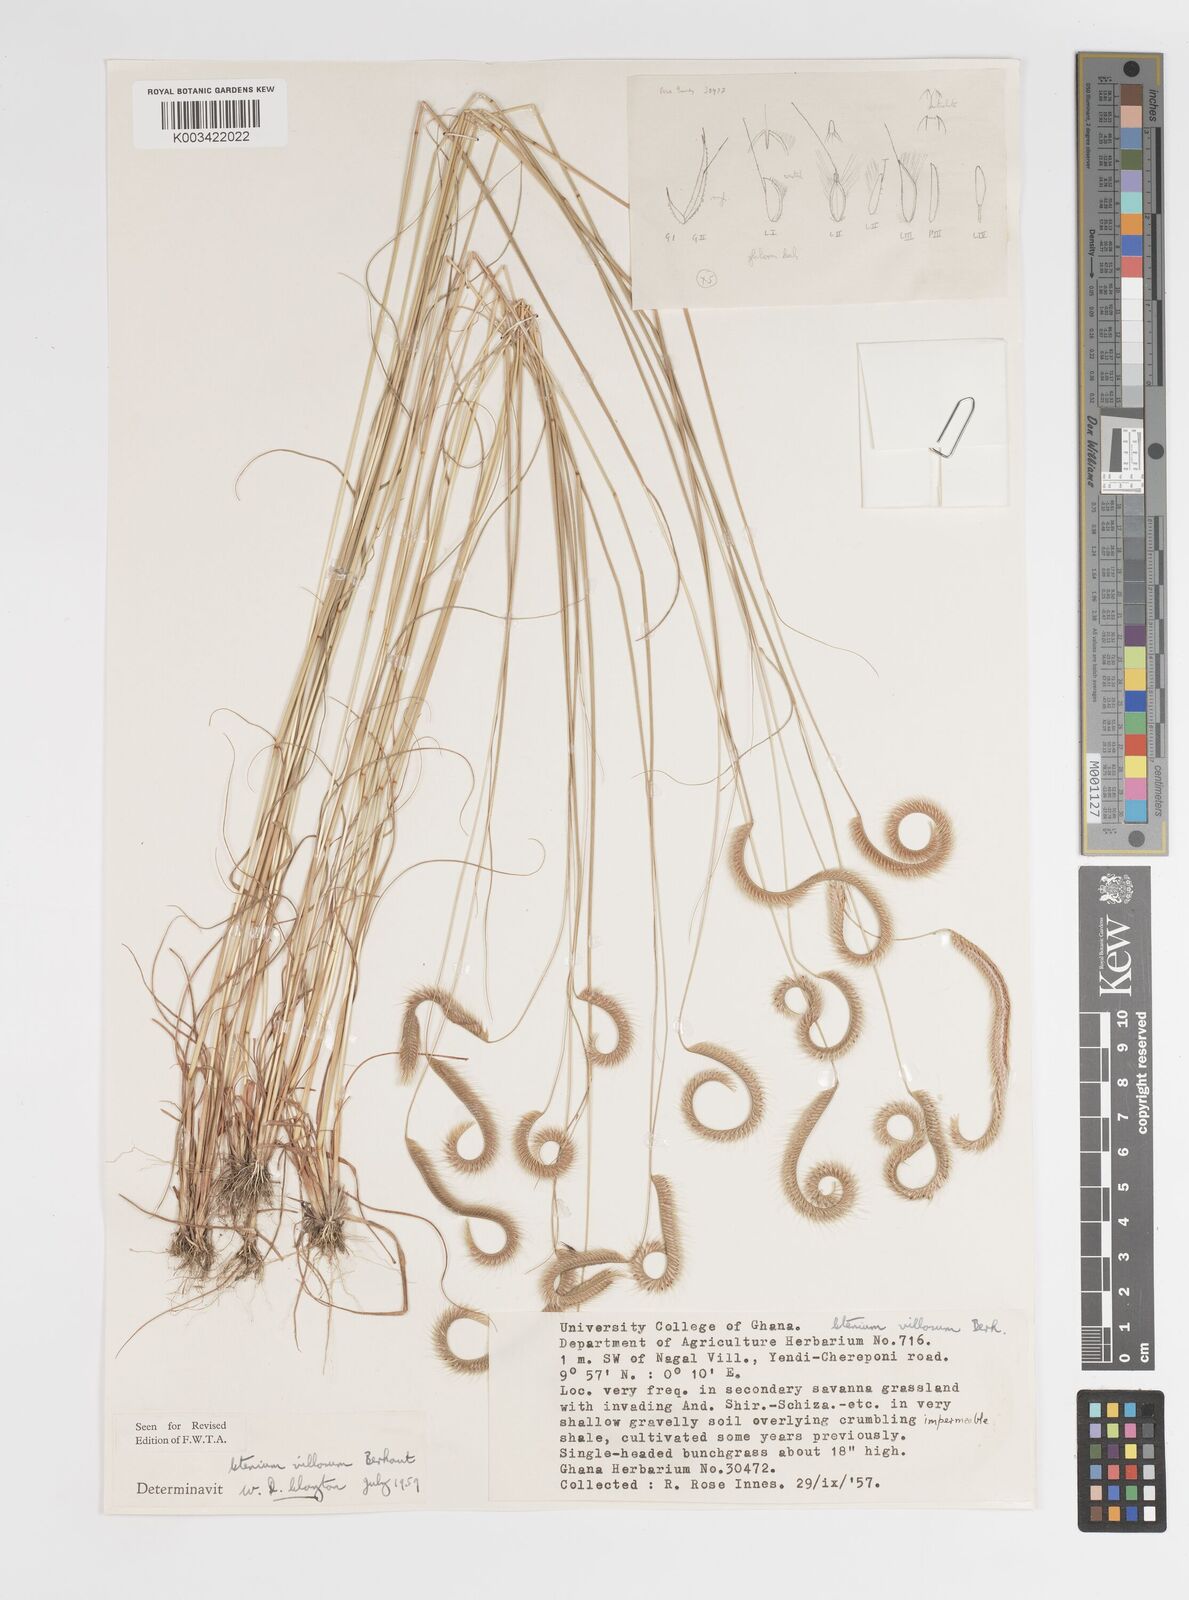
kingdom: Plantae
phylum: Tracheophyta
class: Liliopsida
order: Poales
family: Poaceae
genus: Ctenium
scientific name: Ctenium villosum
